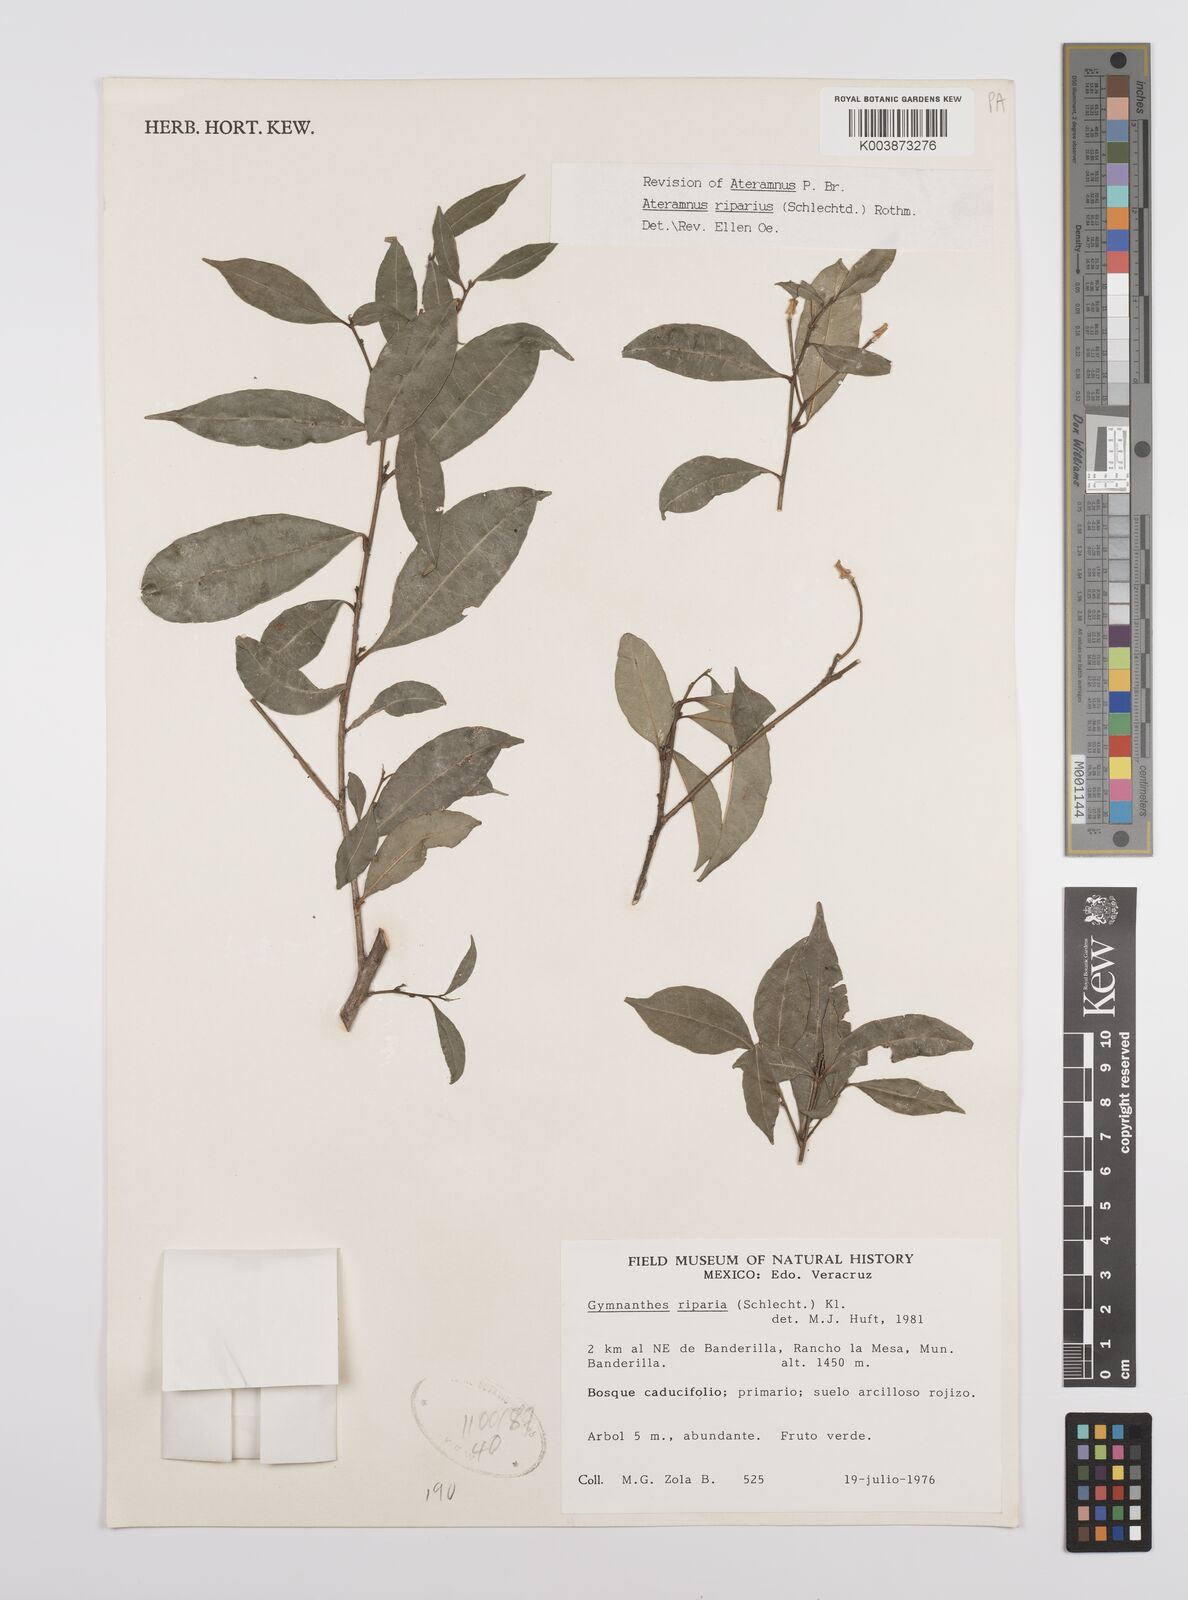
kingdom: Plantae
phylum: Tracheophyta
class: Magnoliopsida
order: Malpighiales
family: Euphorbiaceae
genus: Gymnanthes
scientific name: Gymnanthes riparia
